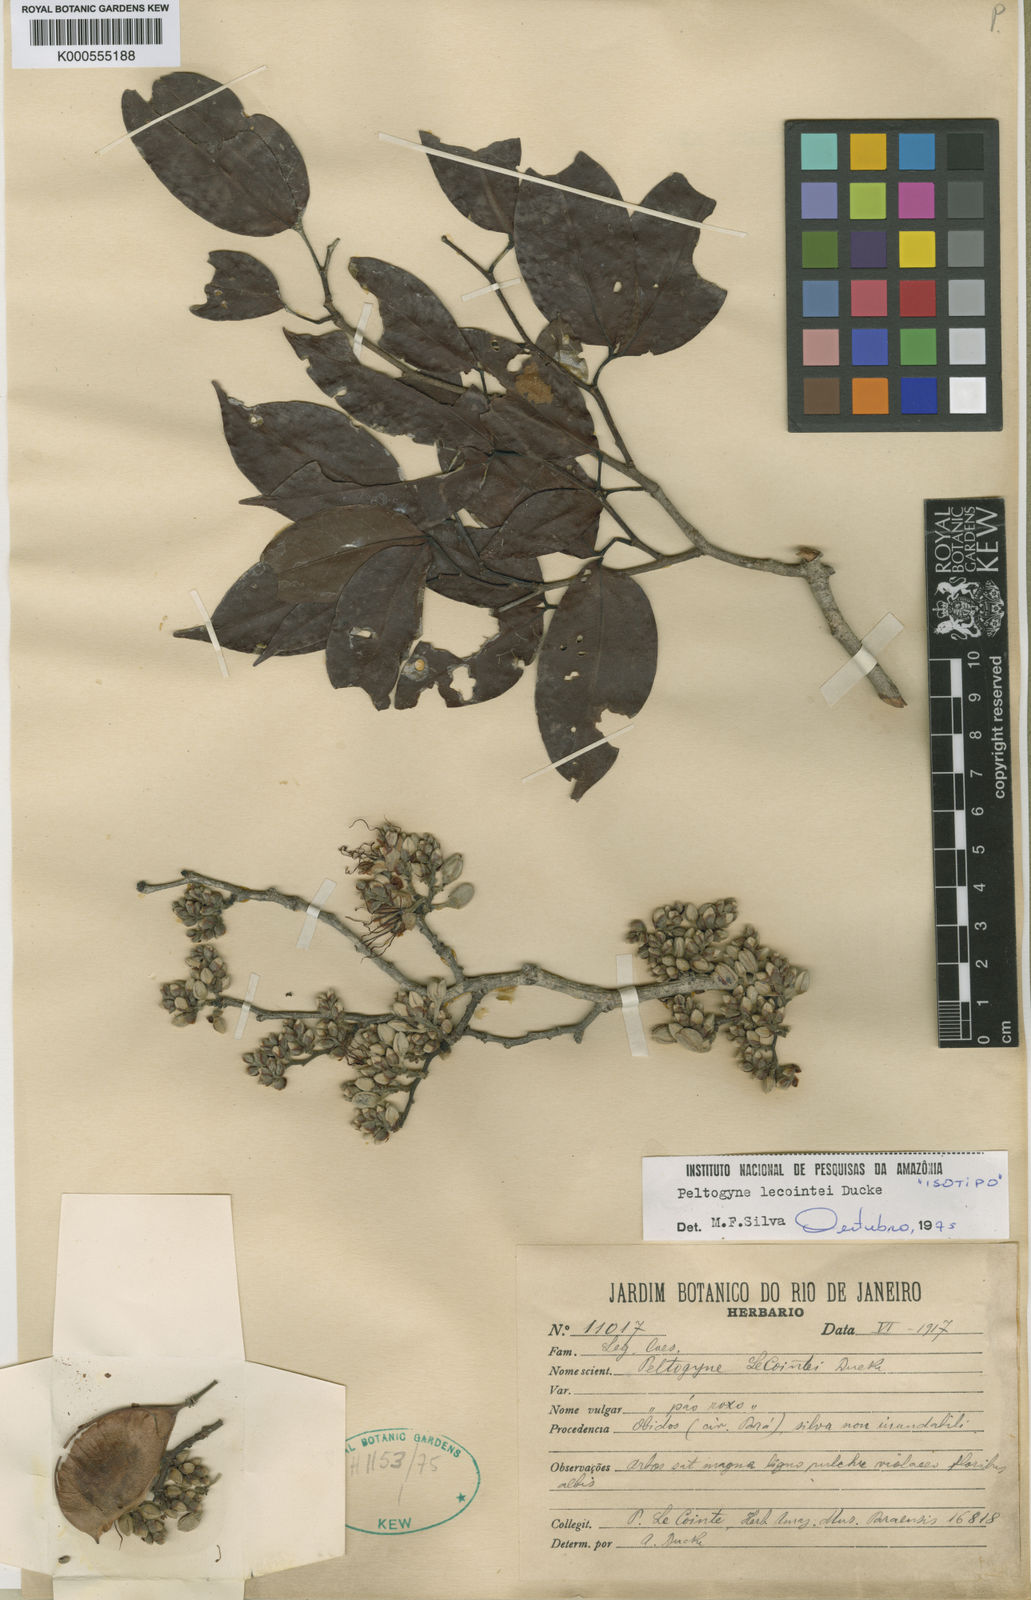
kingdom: Plantae
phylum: Tracheophyta
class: Magnoliopsida
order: Fabales
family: Fabaceae
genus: Peltogyne
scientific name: Peltogyne lecointei
